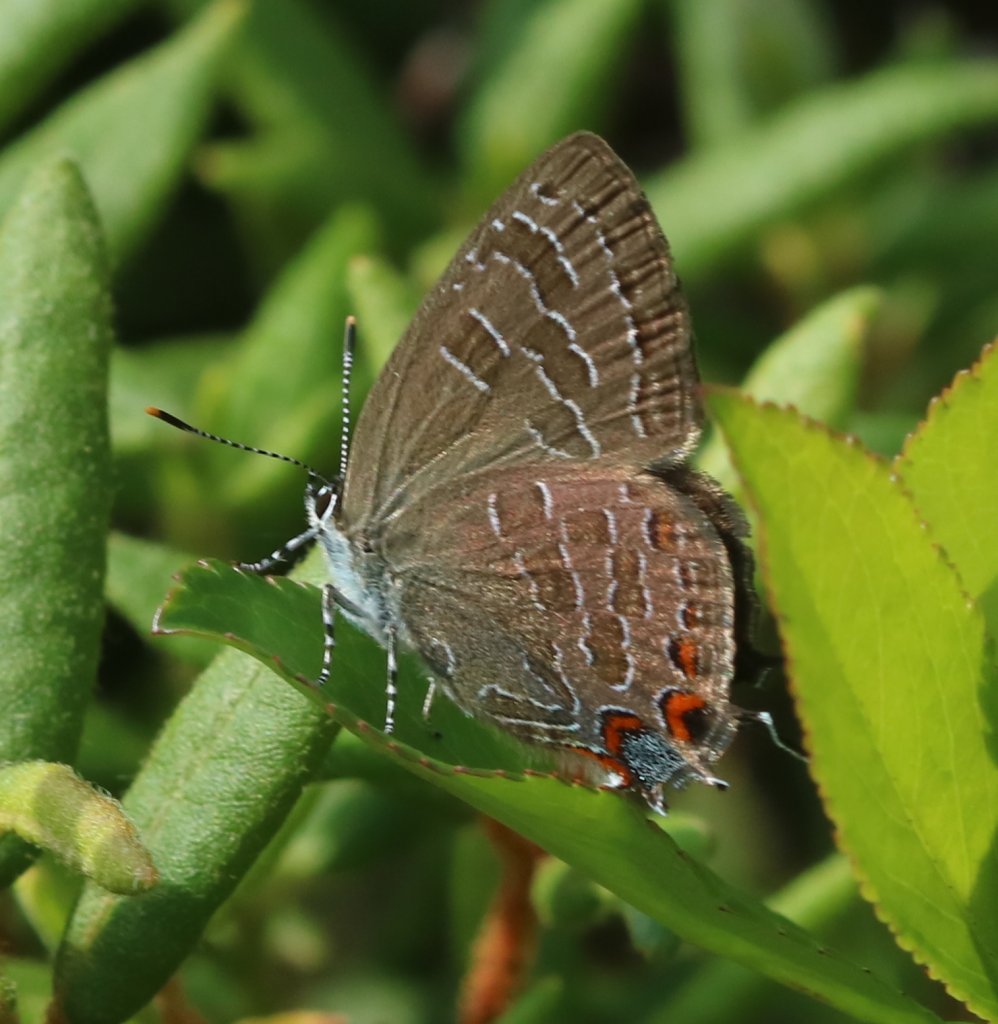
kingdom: Animalia
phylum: Arthropoda
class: Insecta
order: Lepidoptera
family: Lycaenidae
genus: Satyrium
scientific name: Satyrium liparops
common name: Striped Hairstreak
